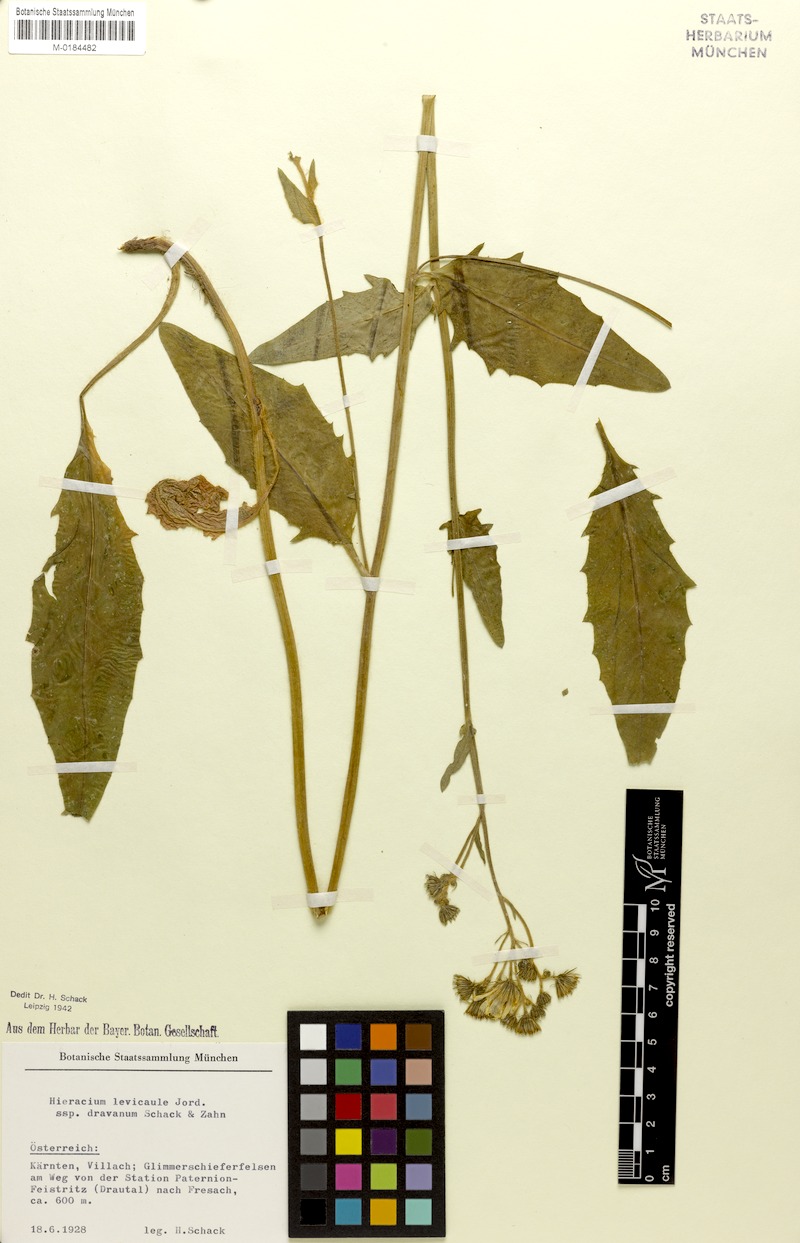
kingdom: Plantae
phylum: Tracheophyta
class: Magnoliopsida
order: Asterales
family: Asteraceae
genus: Hieracium
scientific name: Hieracium levicaule
